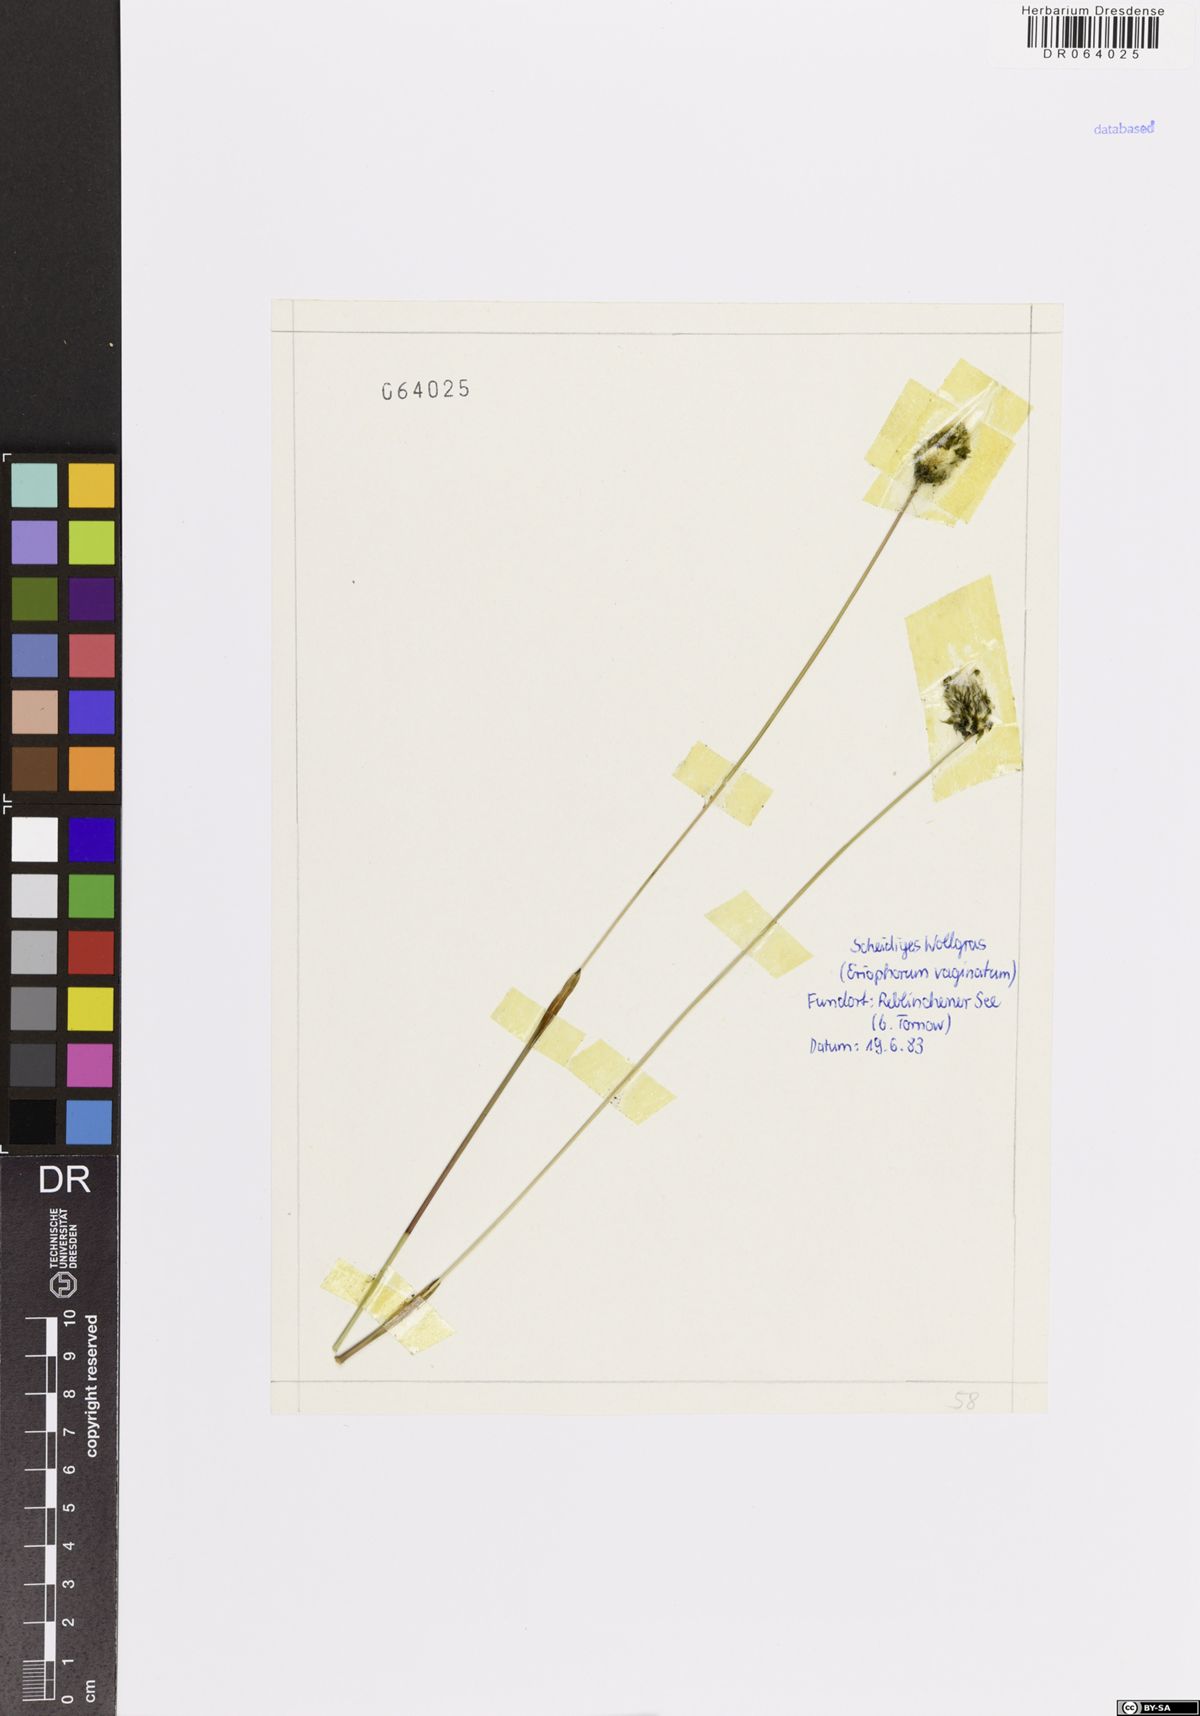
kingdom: Plantae
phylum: Tracheophyta
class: Liliopsida
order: Poales
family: Cyperaceae
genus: Eriophorum
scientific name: Eriophorum vaginatum
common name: Hare's-tail cottongrass
